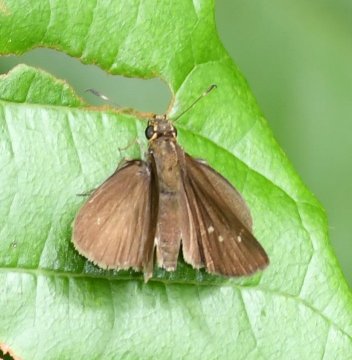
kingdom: Animalia
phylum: Arthropoda
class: Insecta
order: Lepidoptera
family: Hesperiidae
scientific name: Hesperiidae
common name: Skippers
